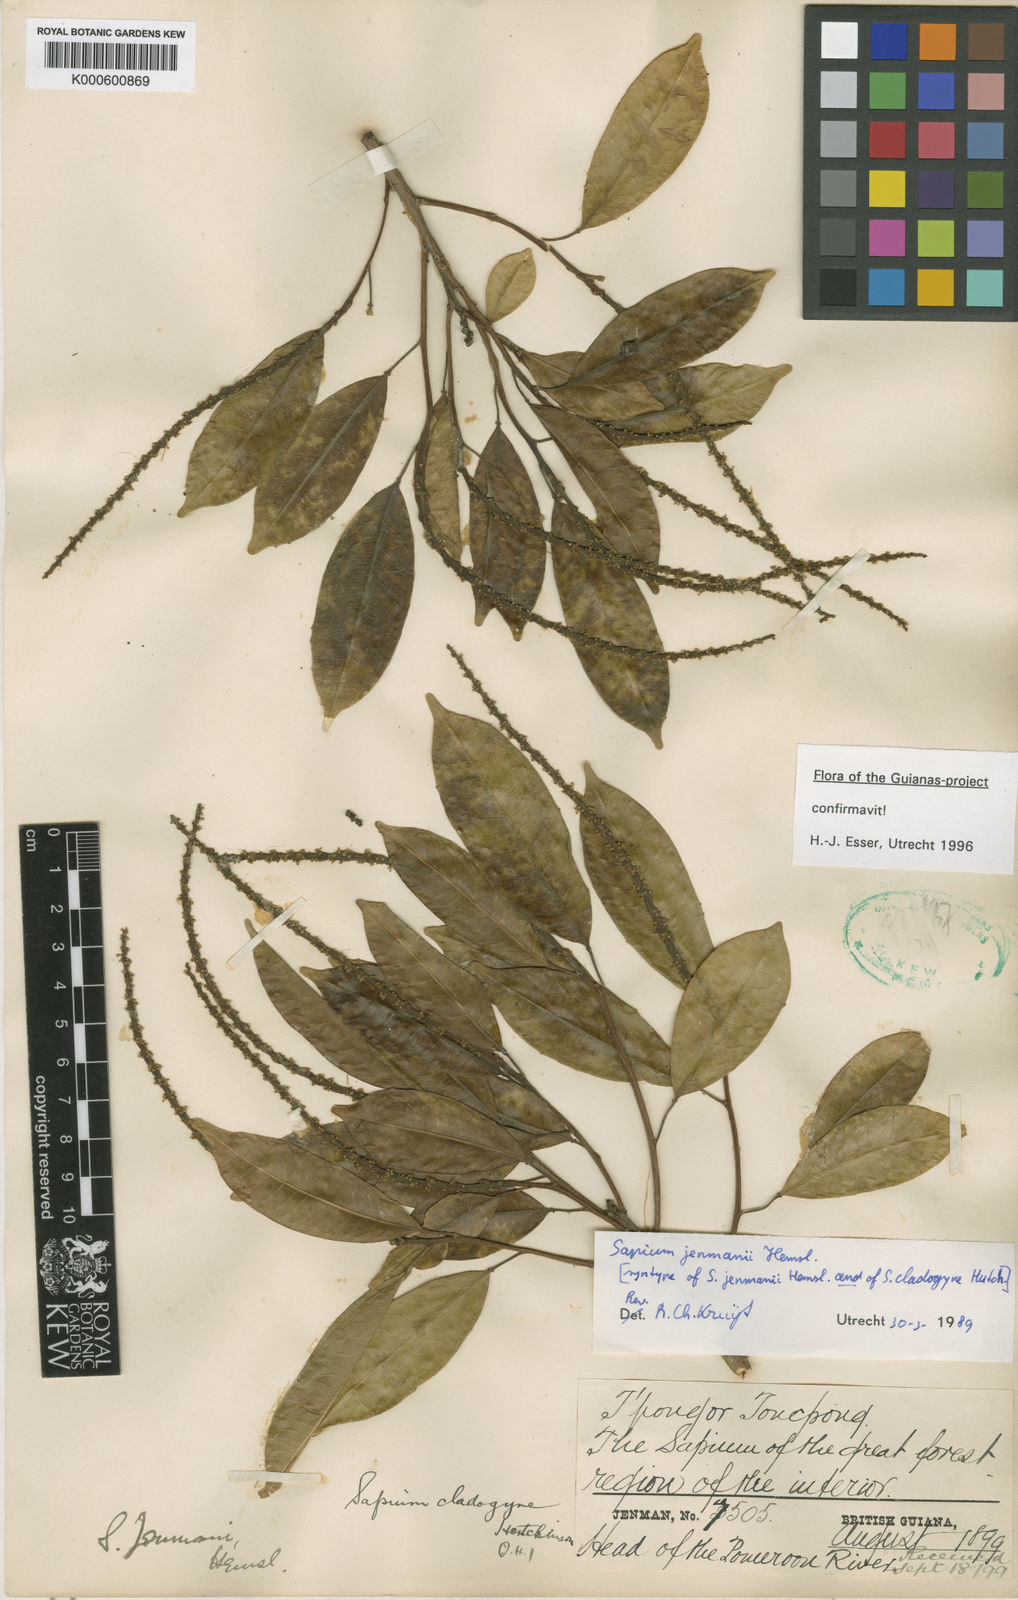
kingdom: Plantae
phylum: Tracheophyta
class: Magnoliopsida
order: Malpighiales
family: Euphorbiaceae
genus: Sapium
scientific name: Sapium jenmannii
